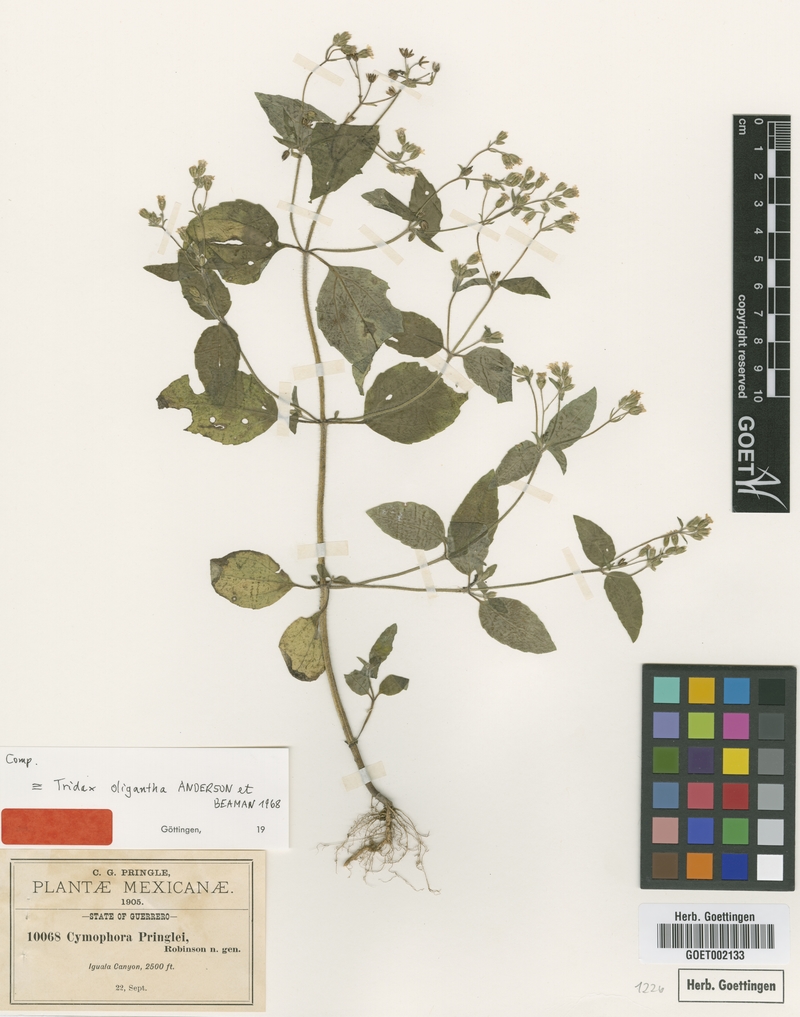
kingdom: Plantae
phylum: Tracheophyta
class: Magnoliopsida
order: Asterales
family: Asteraceae
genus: Cymophora
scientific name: Cymophora pringlei
